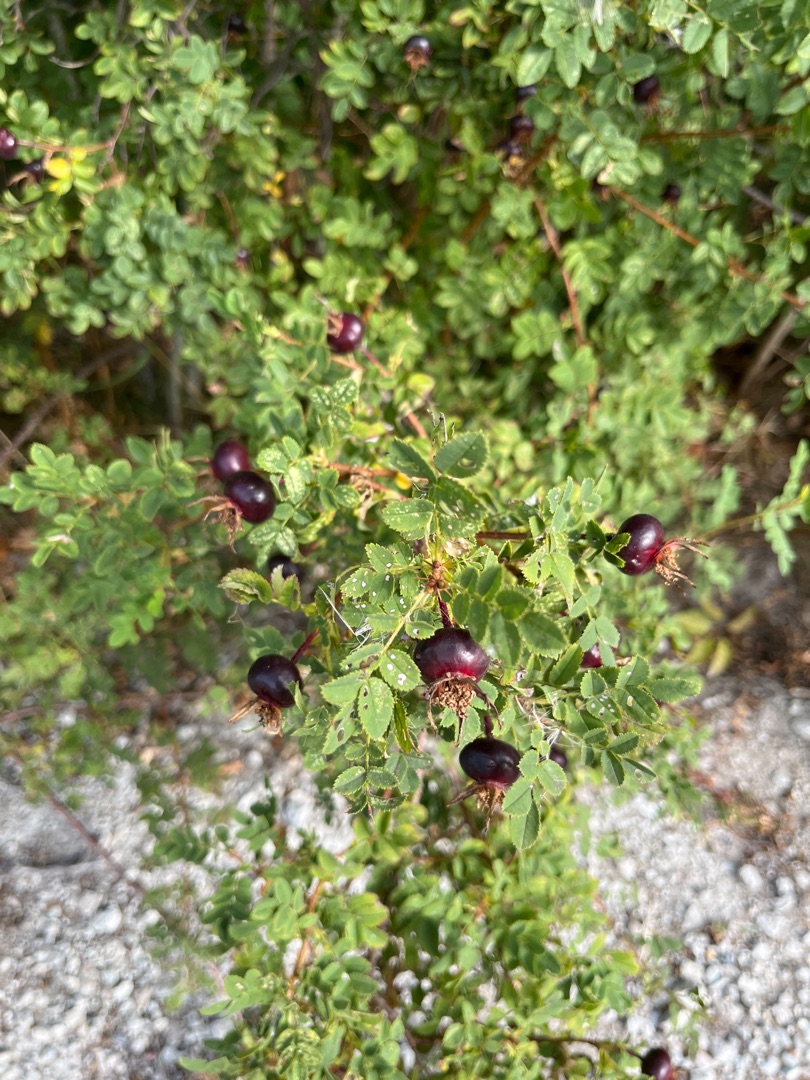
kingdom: Plantae
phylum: Tracheophyta
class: Magnoliopsida
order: Rosales
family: Rosaceae
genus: Rosa
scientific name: Rosa spinosissima
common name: Klit-rose
